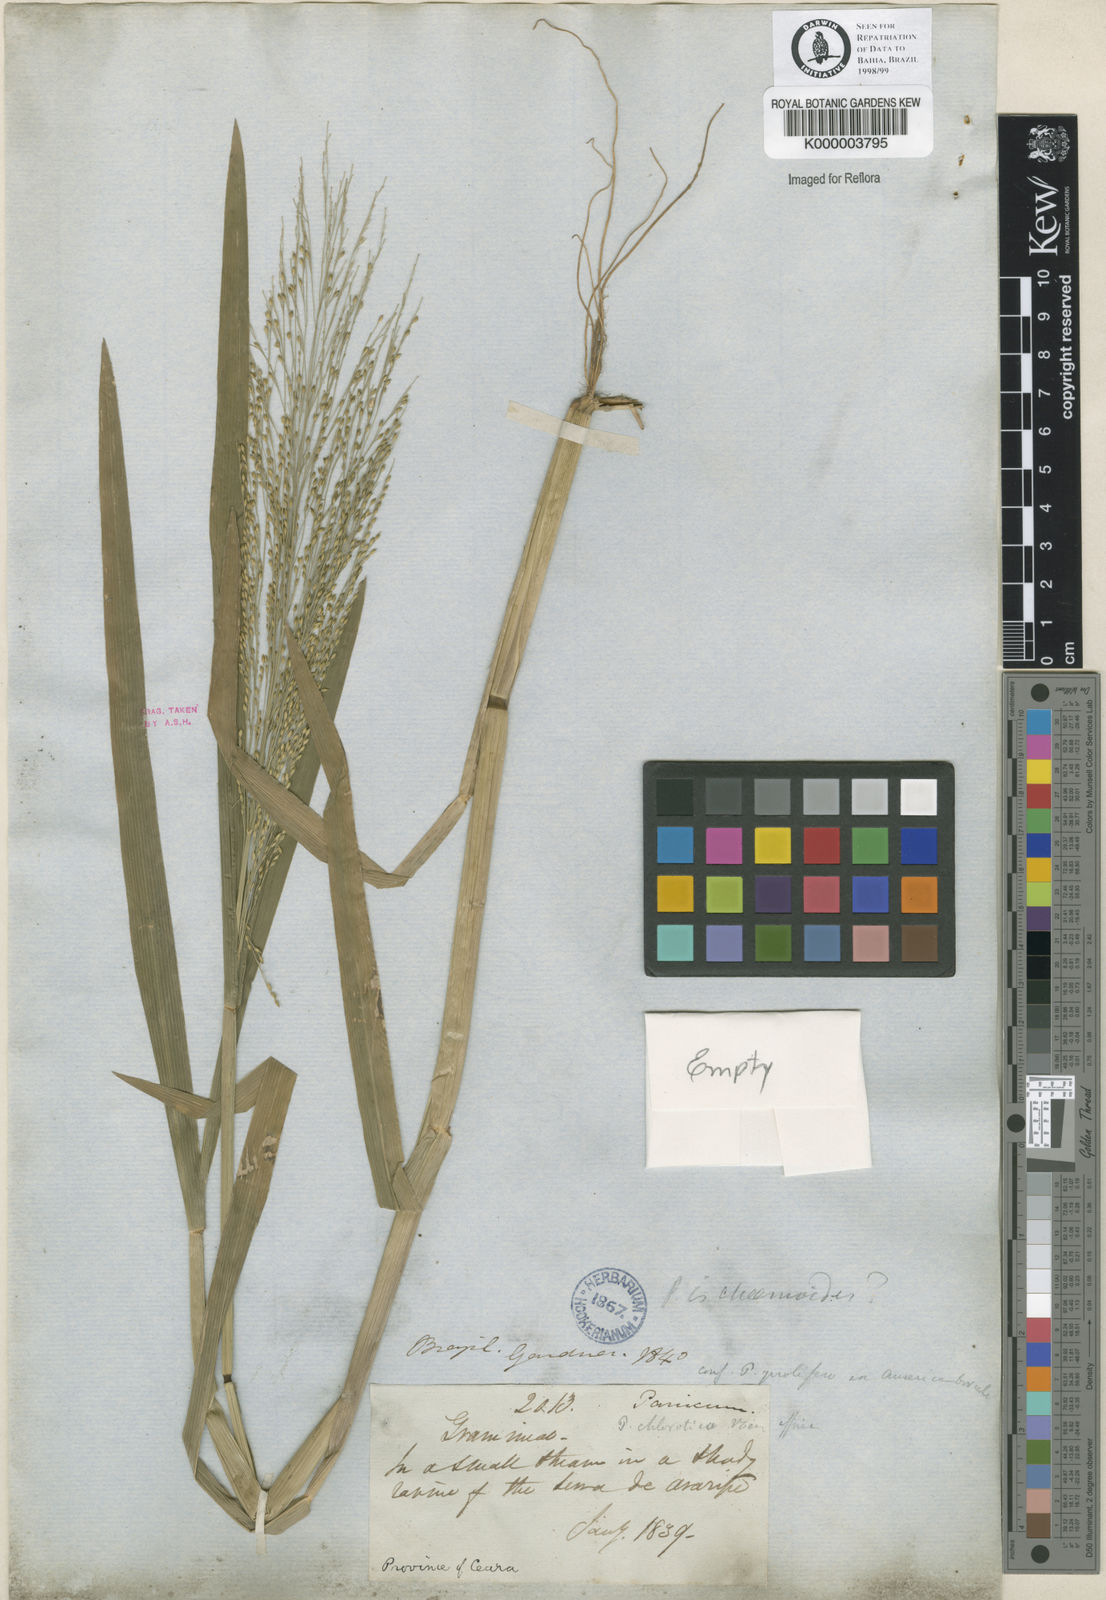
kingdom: Plantae
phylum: Tracheophyta
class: Liliopsida
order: Poales
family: Poaceae
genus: Panicum
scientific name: Panicum dichotomiflorum
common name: Autumn millet
